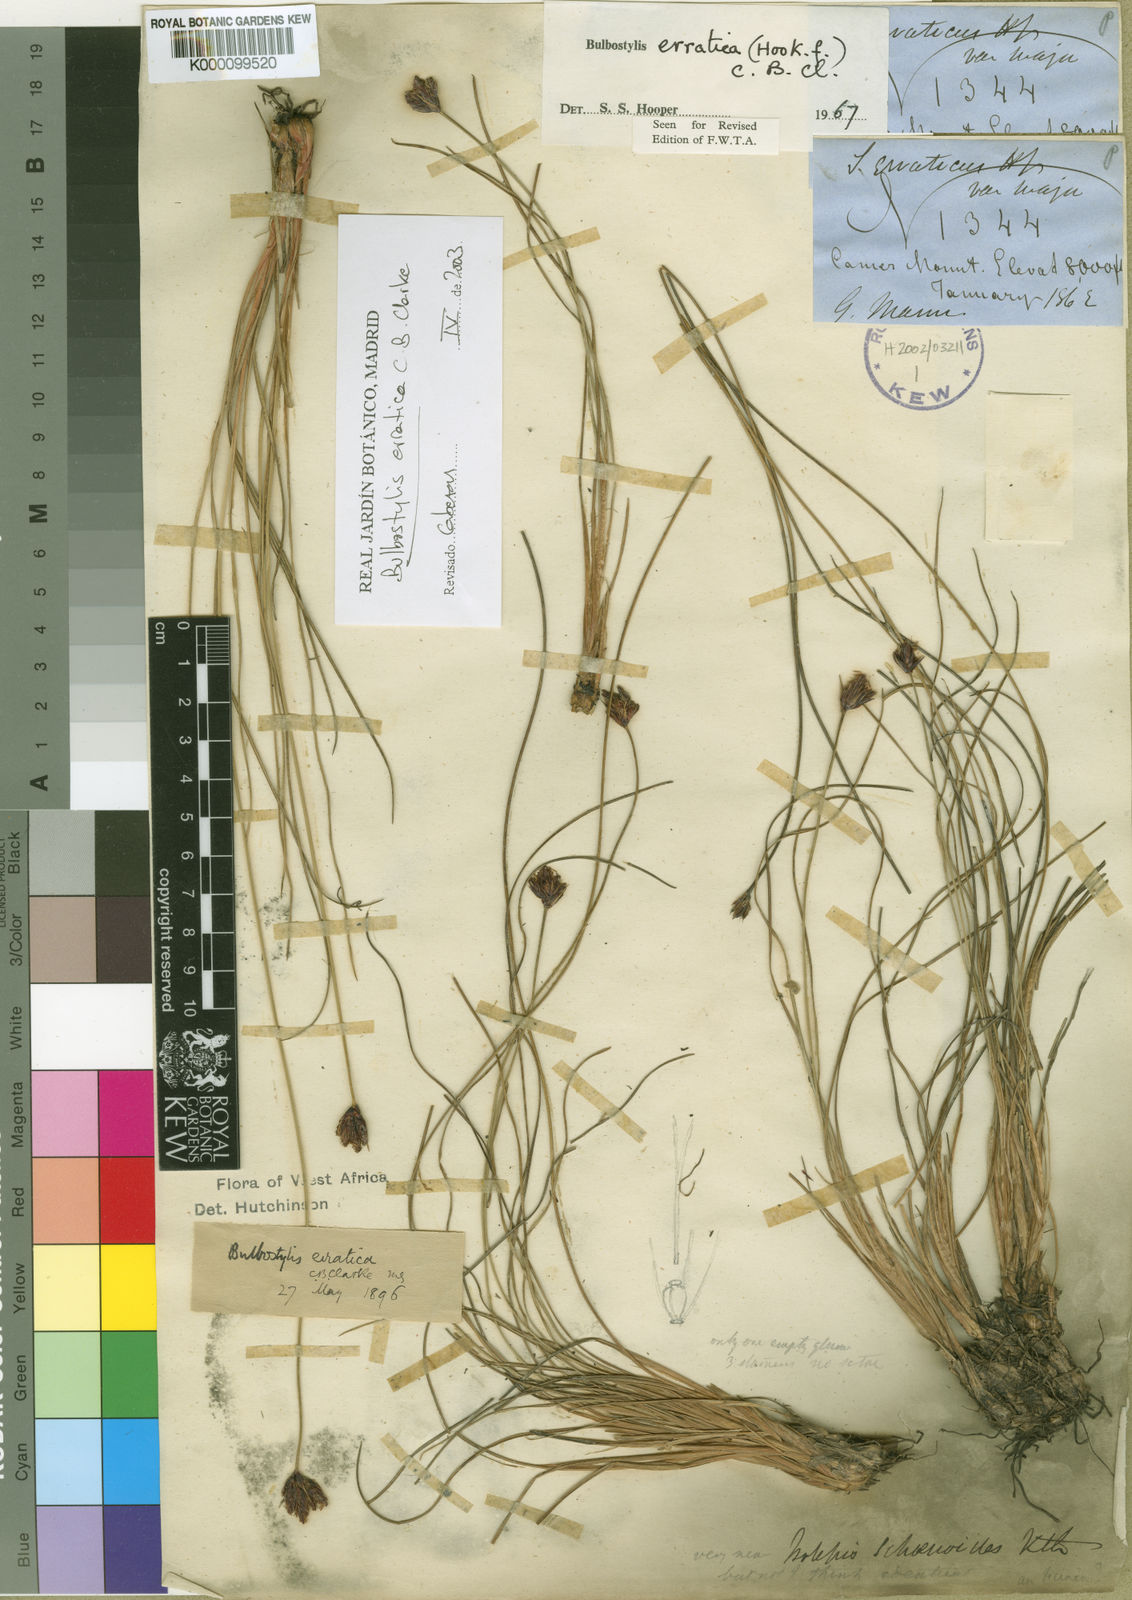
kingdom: Plantae
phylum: Tracheophyta
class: Liliopsida
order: Poales
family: Cyperaceae
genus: Bulbostylis
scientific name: Bulbostylis schoenoides
